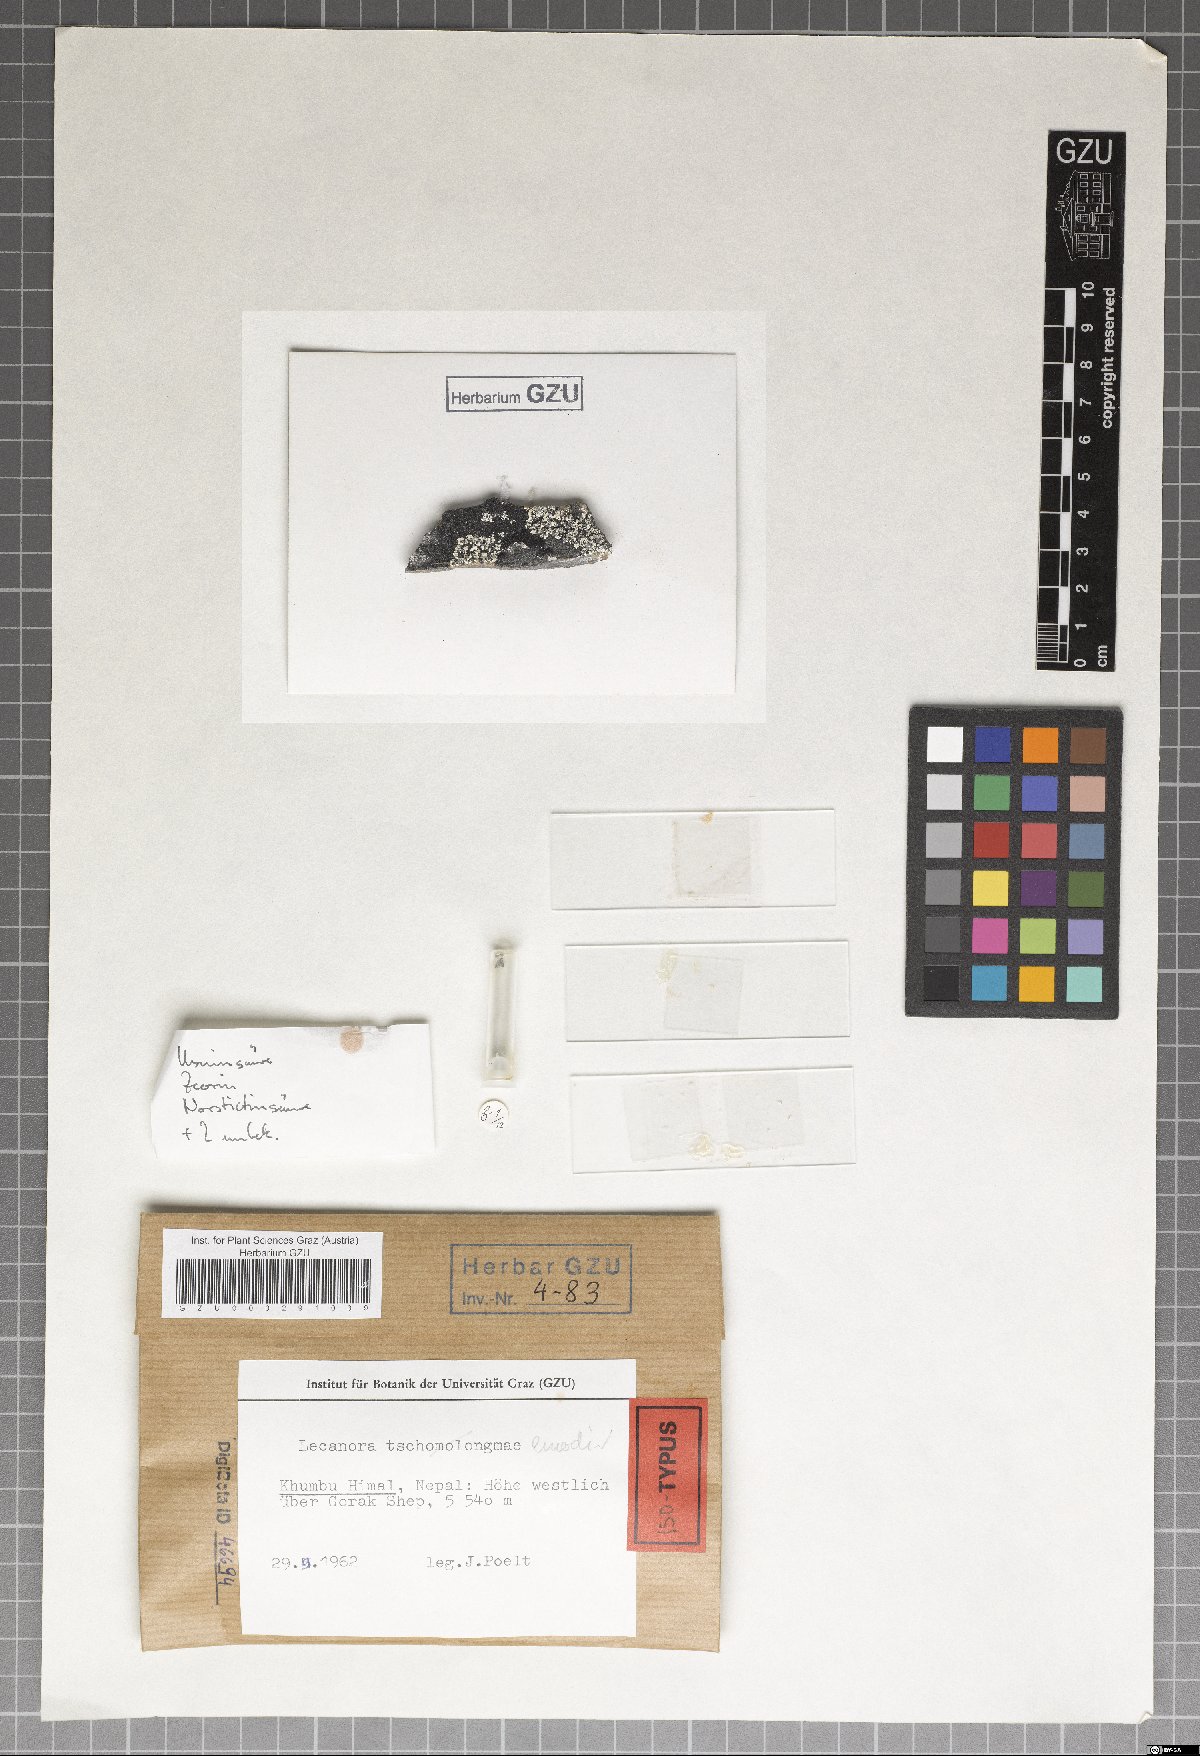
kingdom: Fungi
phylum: Ascomycota
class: Lecanoromycetes
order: Lecanorales
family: Lecanoraceae
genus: Lecanora
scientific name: Lecanora emodi
